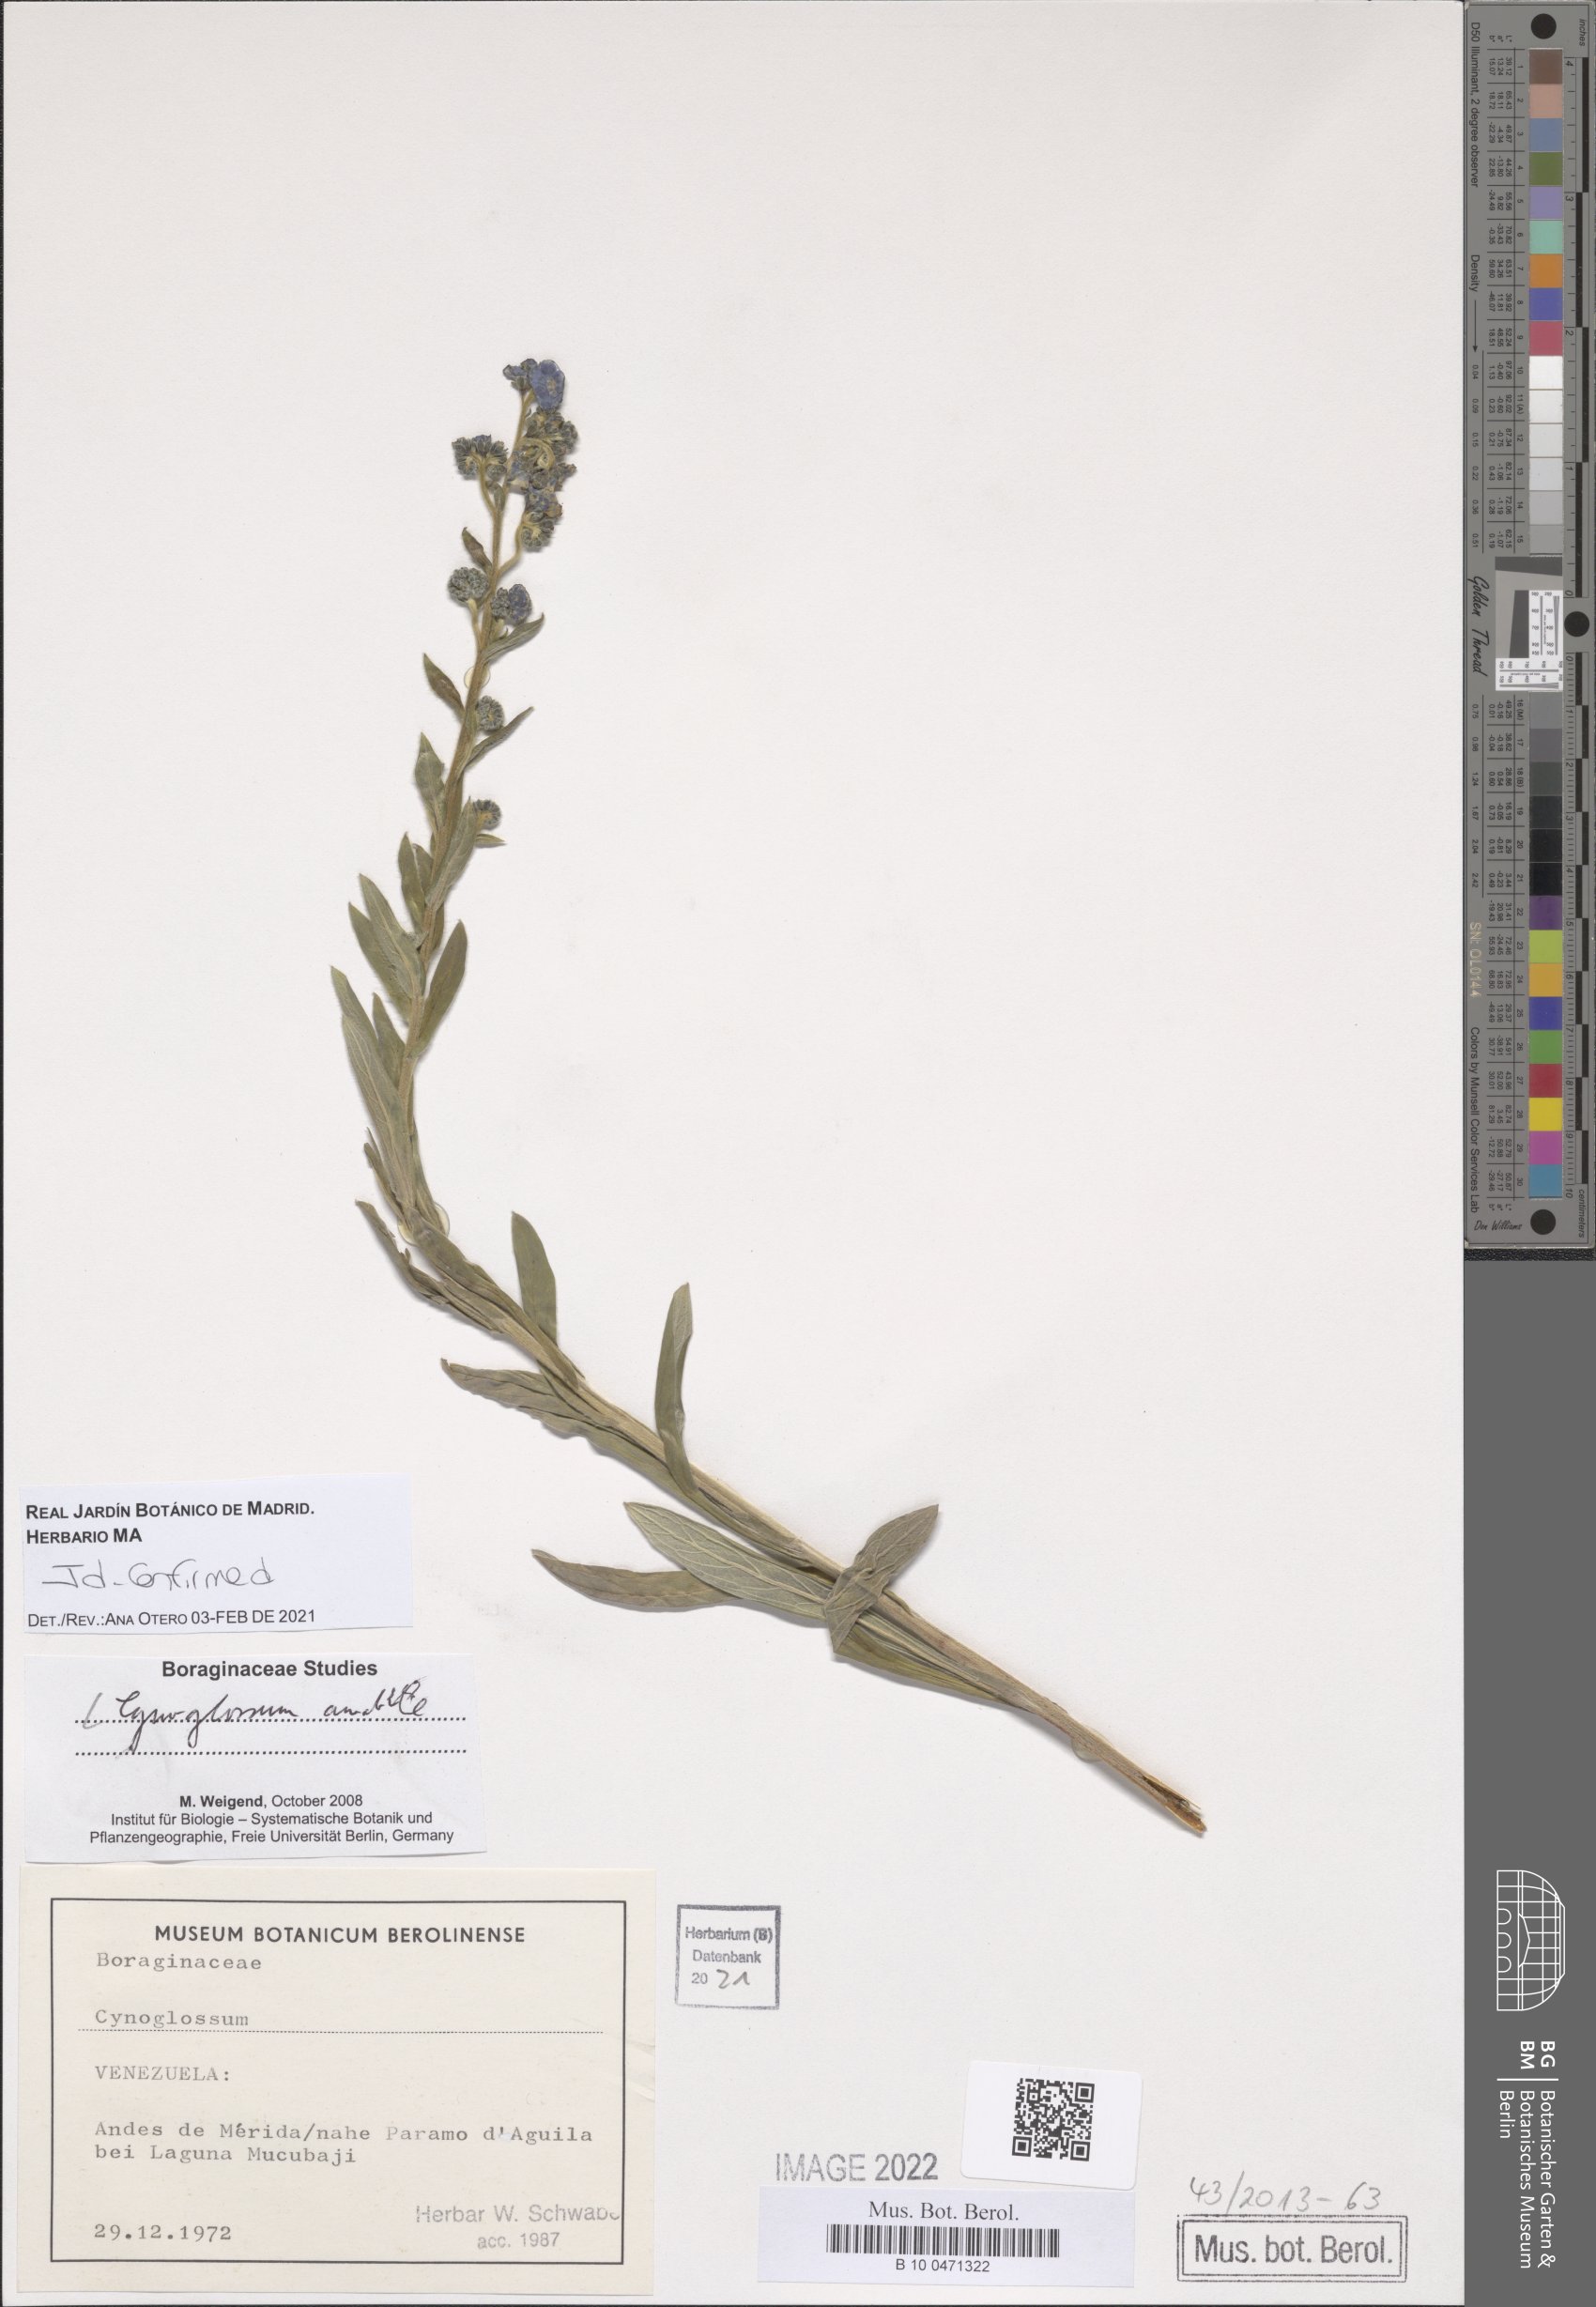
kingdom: Plantae
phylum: Tracheophyta
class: Magnoliopsida
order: Boraginales
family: Boraginaceae
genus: Cynoglossum
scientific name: Cynoglossum amabile
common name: Chinese hound's tongue
